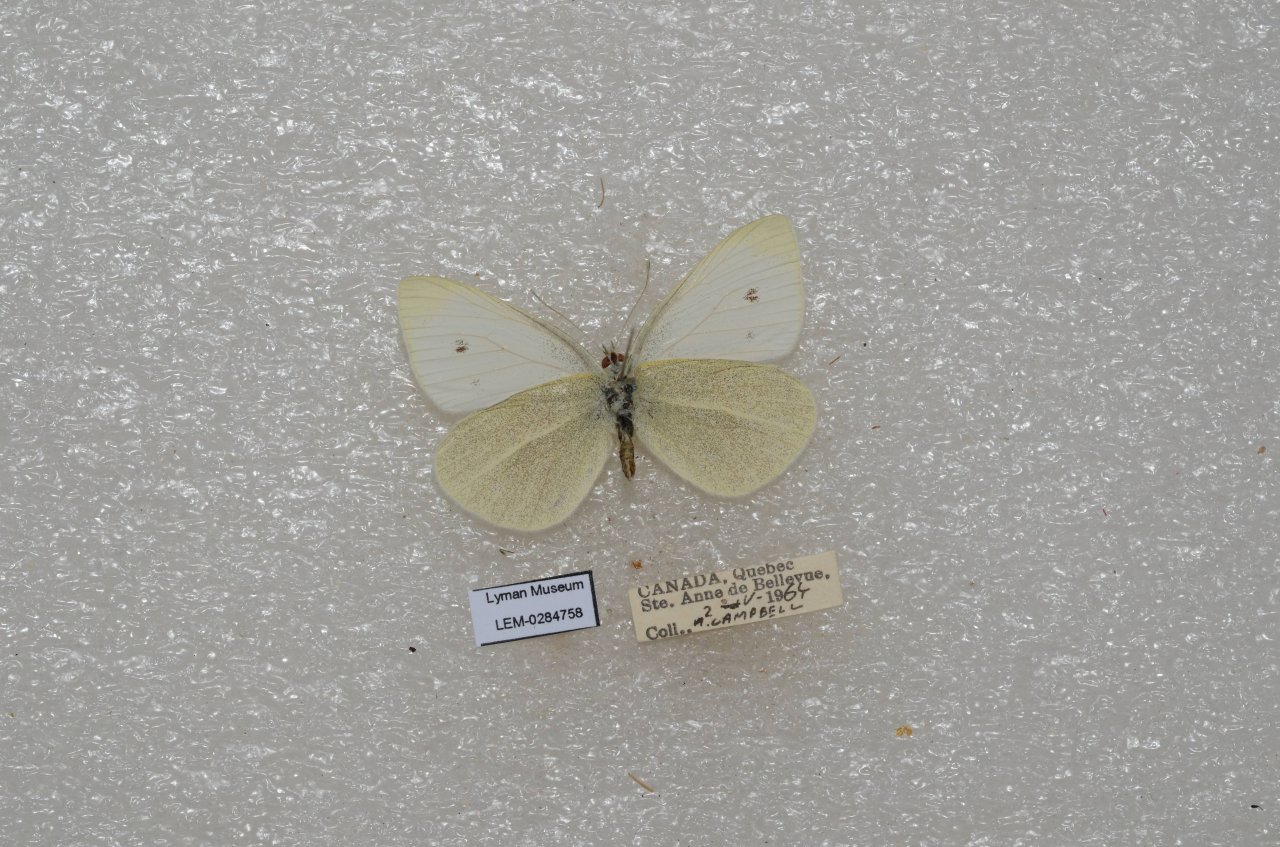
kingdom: Animalia
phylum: Arthropoda
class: Insecta
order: Lepidoptera
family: Pieridae
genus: Pieris
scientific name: Pieris rapae
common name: Cabbage White
